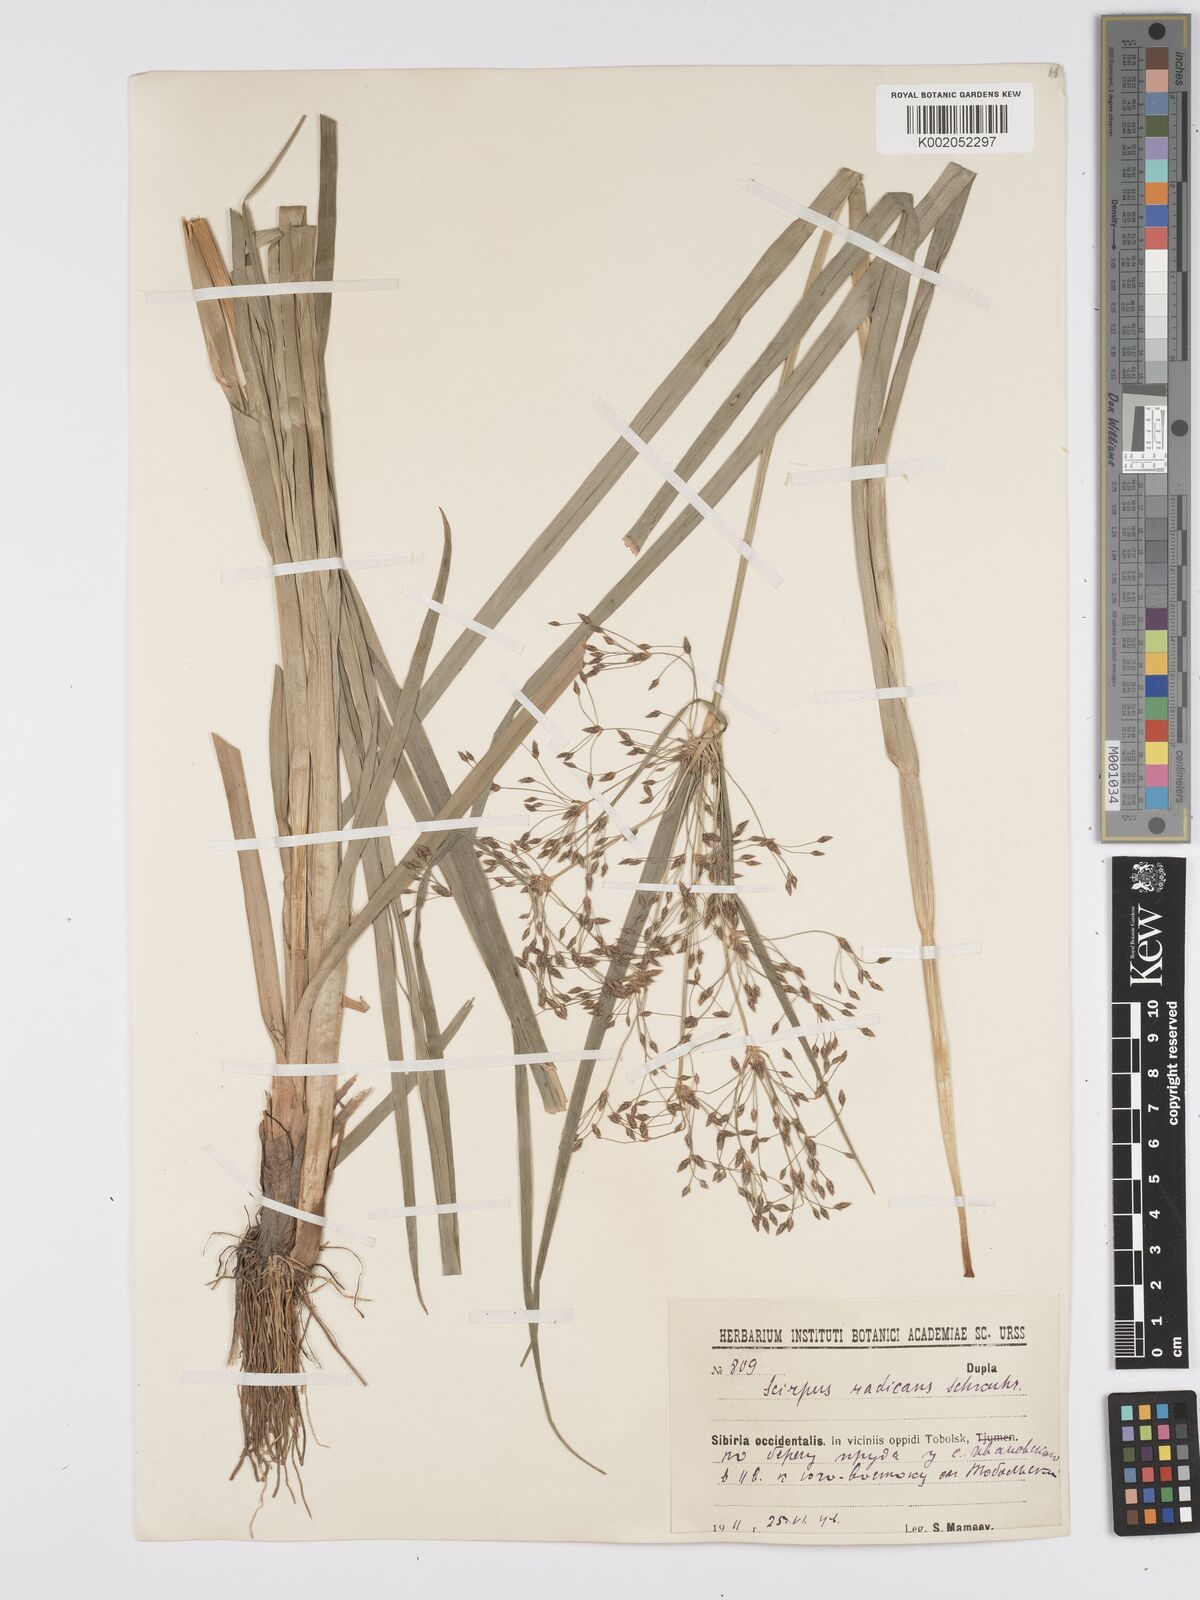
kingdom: Plantae
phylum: Tracheophyta
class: Liliopsida
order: Poales
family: Cyperaceae
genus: Scirpus
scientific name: Scirpus radicans
